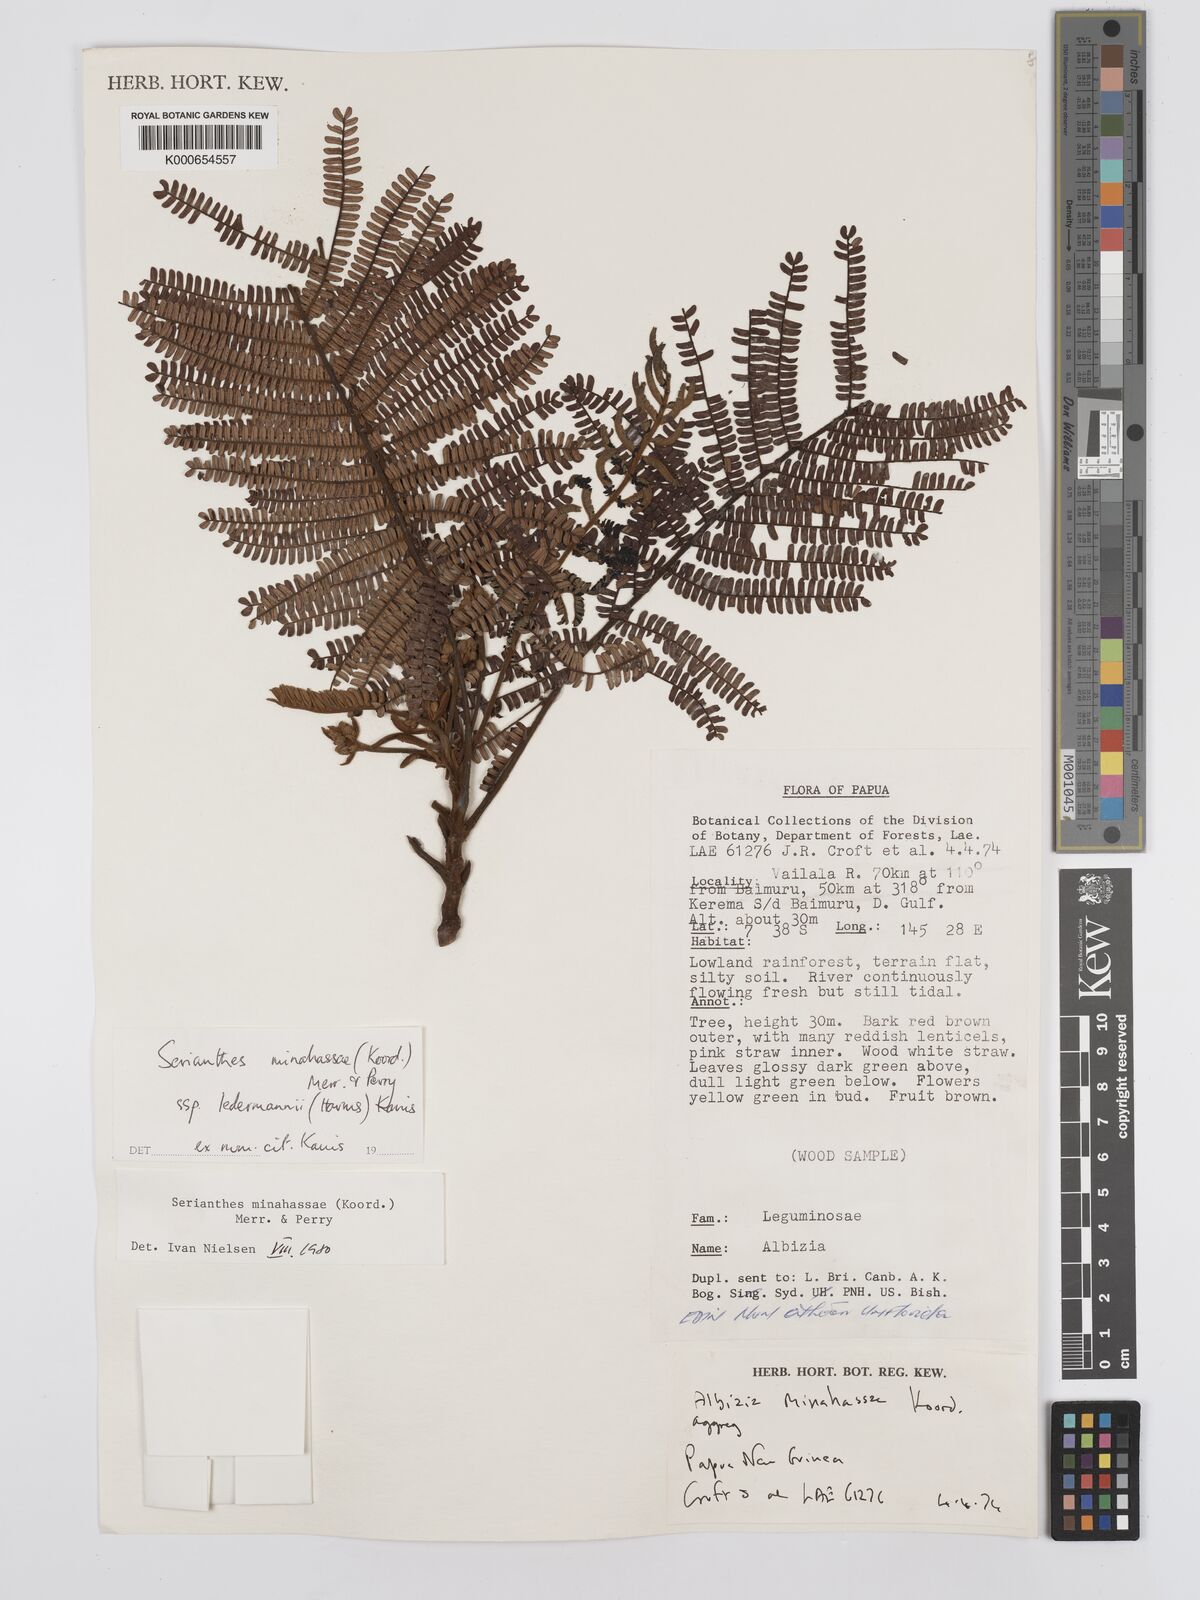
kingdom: Plantae
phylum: Tracheophyta
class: Magnoliopsida
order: Fabales
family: Fabaceae
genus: Serianthes
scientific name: Serianthes minahassae
